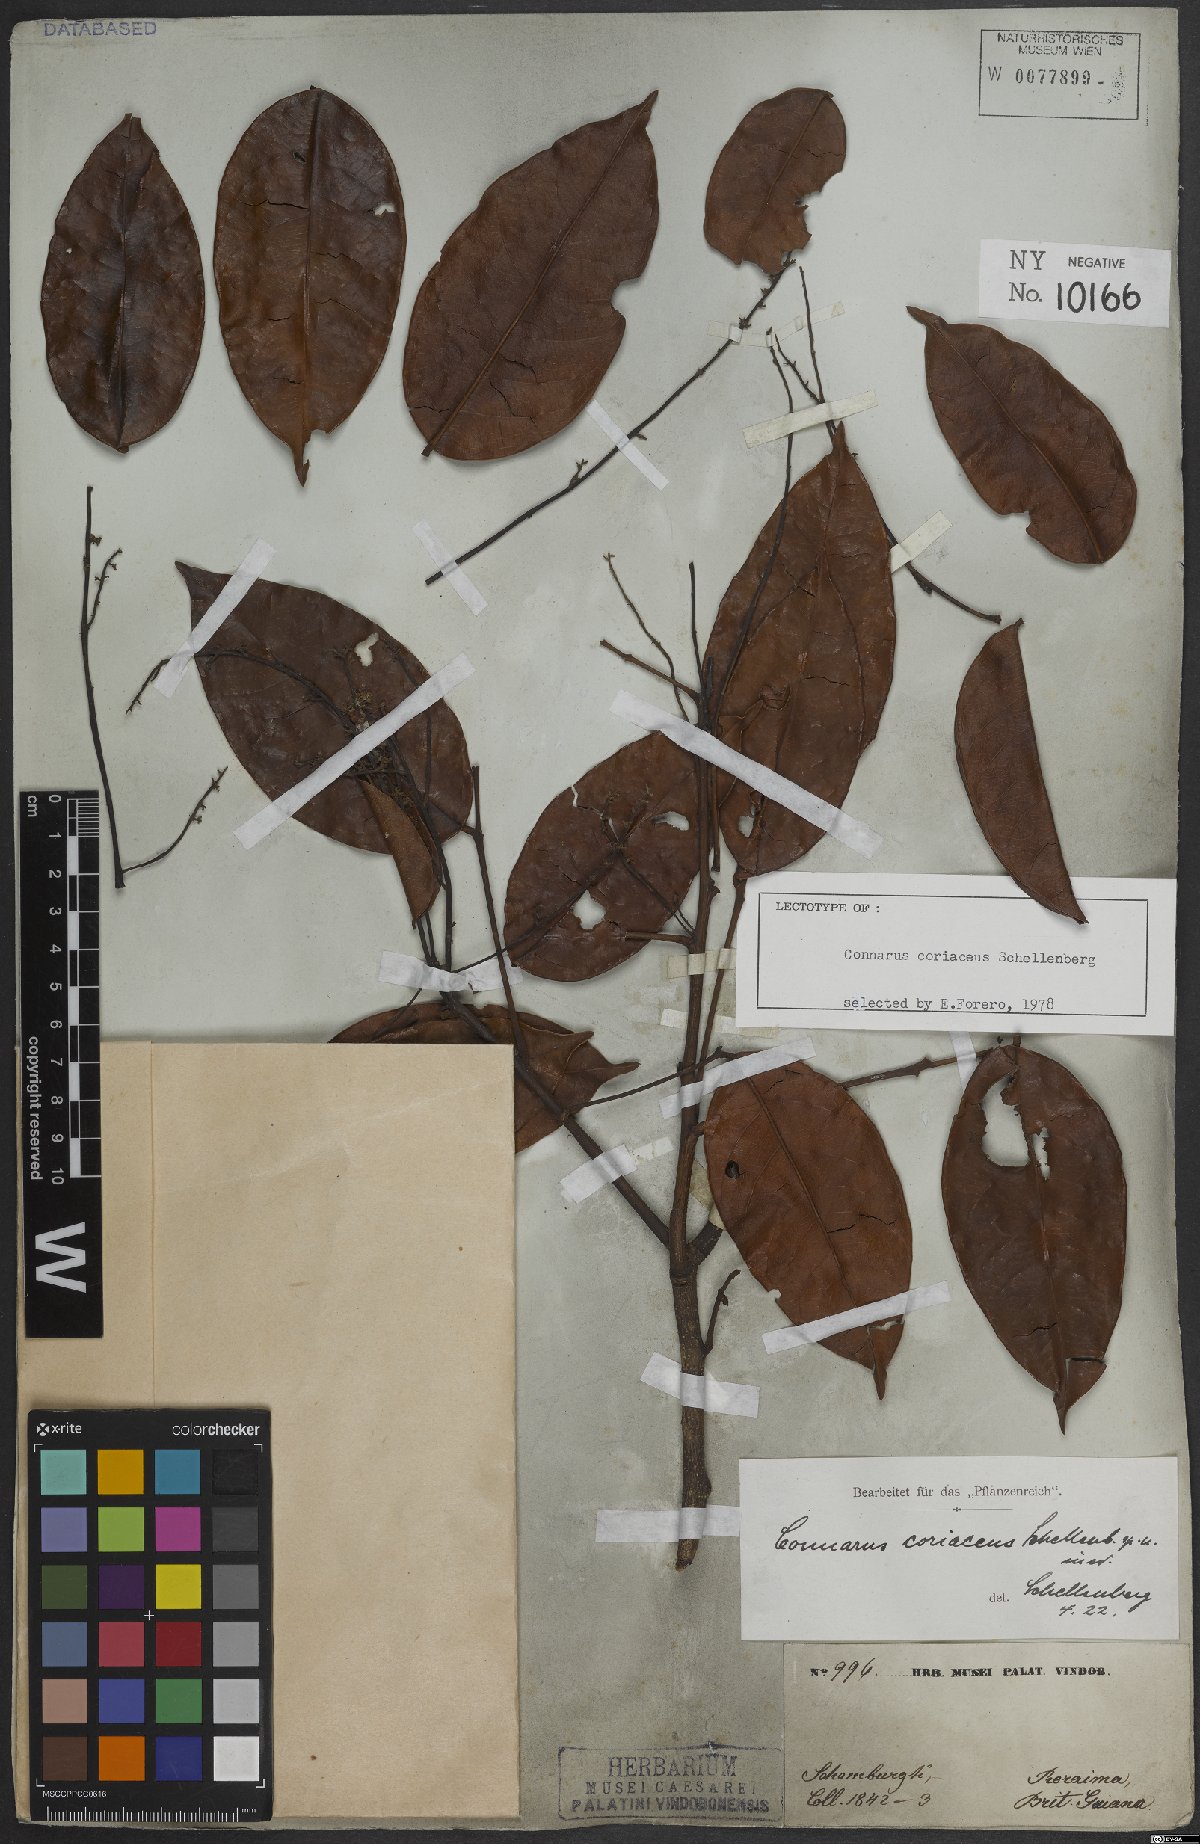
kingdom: Plantae
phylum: Tracheophyta
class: Magnoliopsida
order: Oxalidales
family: Connaraceae
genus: Connarus
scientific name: Connarus coriaceus
